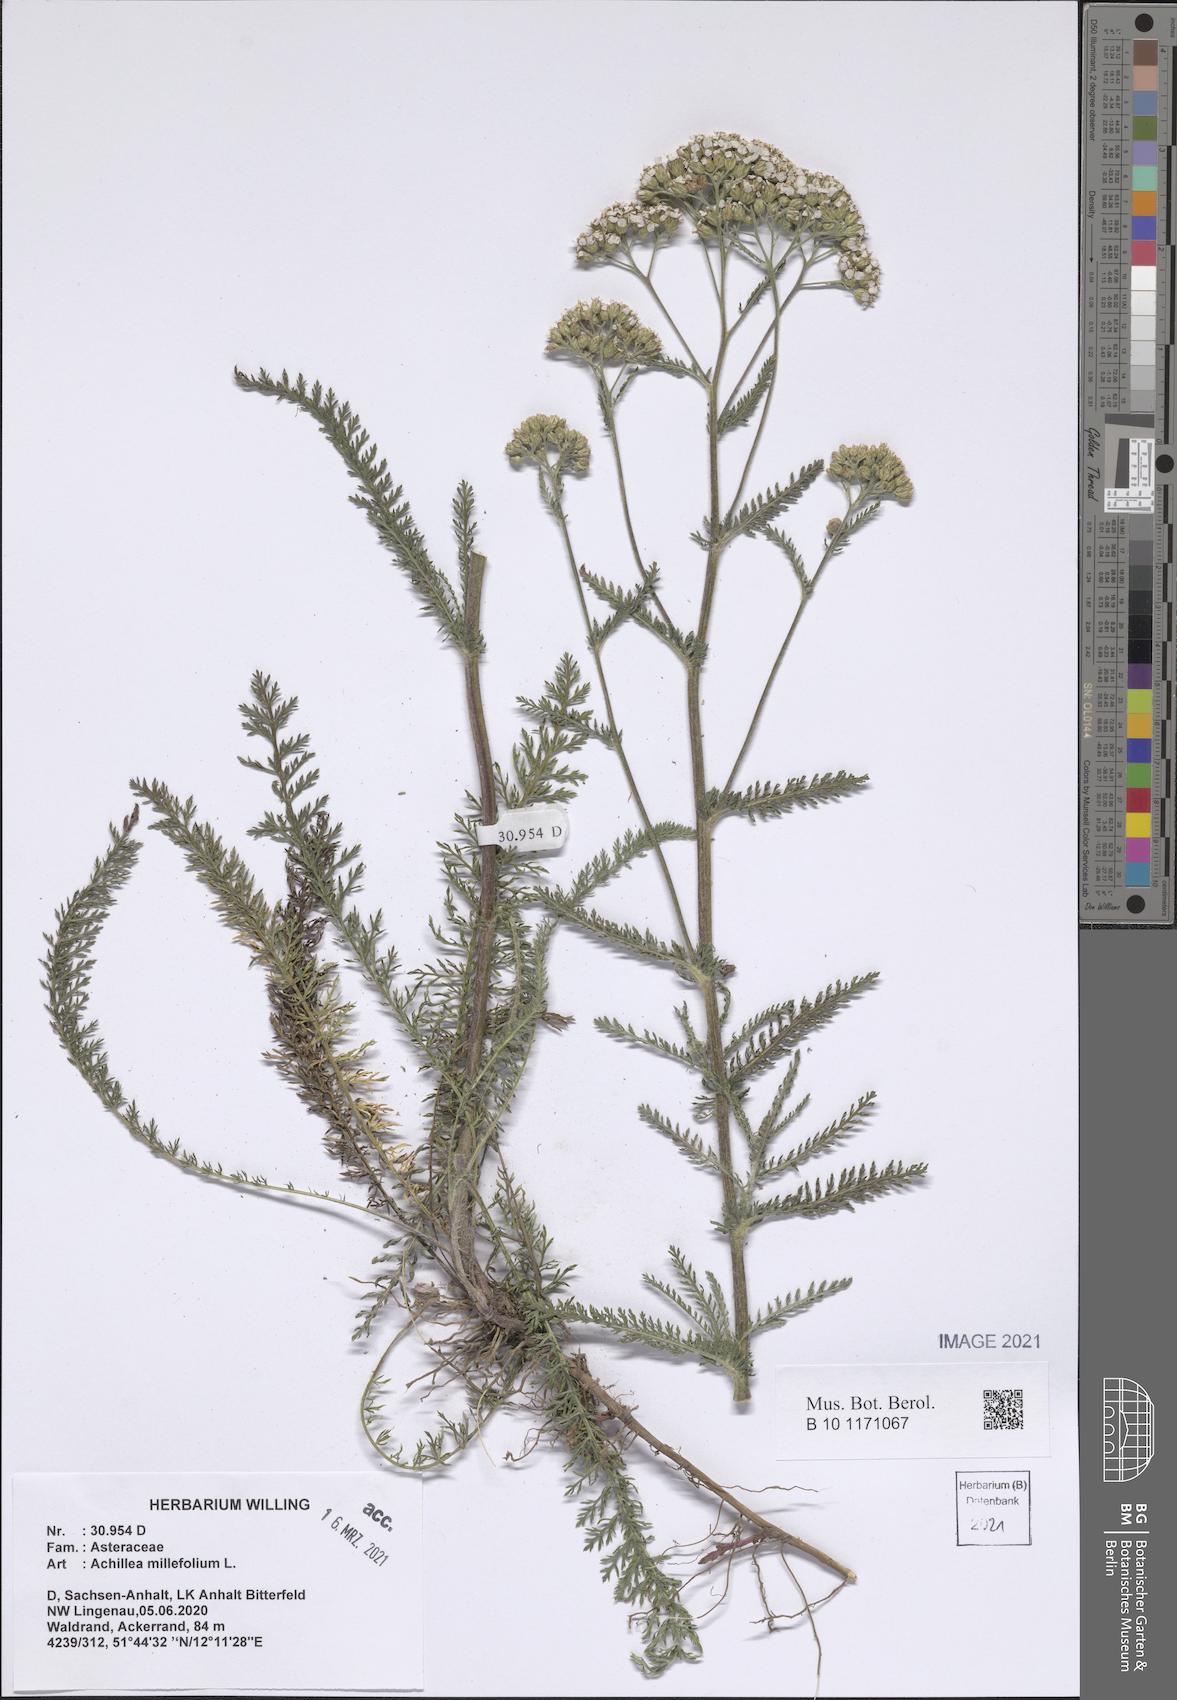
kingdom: Plantae
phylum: Tracheophyta
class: Magnoliopsida
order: Asterales
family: Asteraceae
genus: Achillea
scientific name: Achillea millefolium
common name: Yarrow
